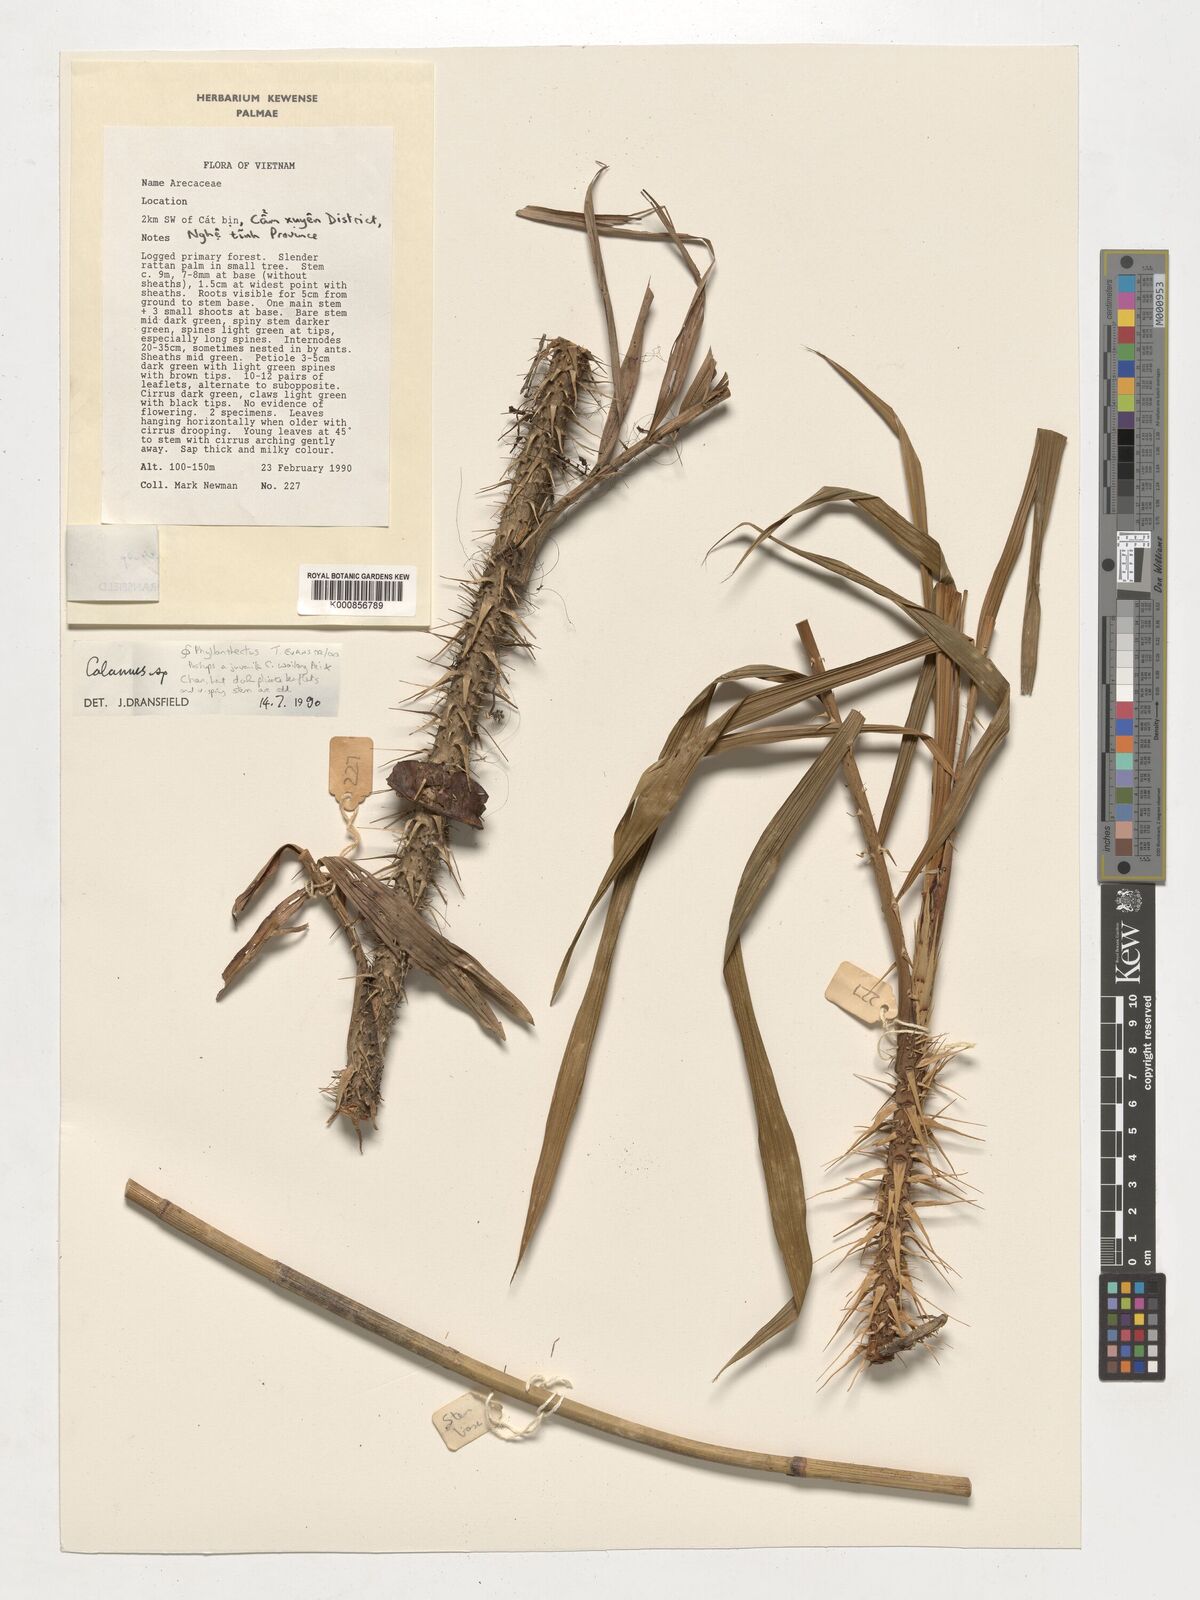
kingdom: Plantae
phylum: Tracheophyta
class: Liliopsida
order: Arecales
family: Arecaceae
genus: Calamus
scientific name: Calamus
